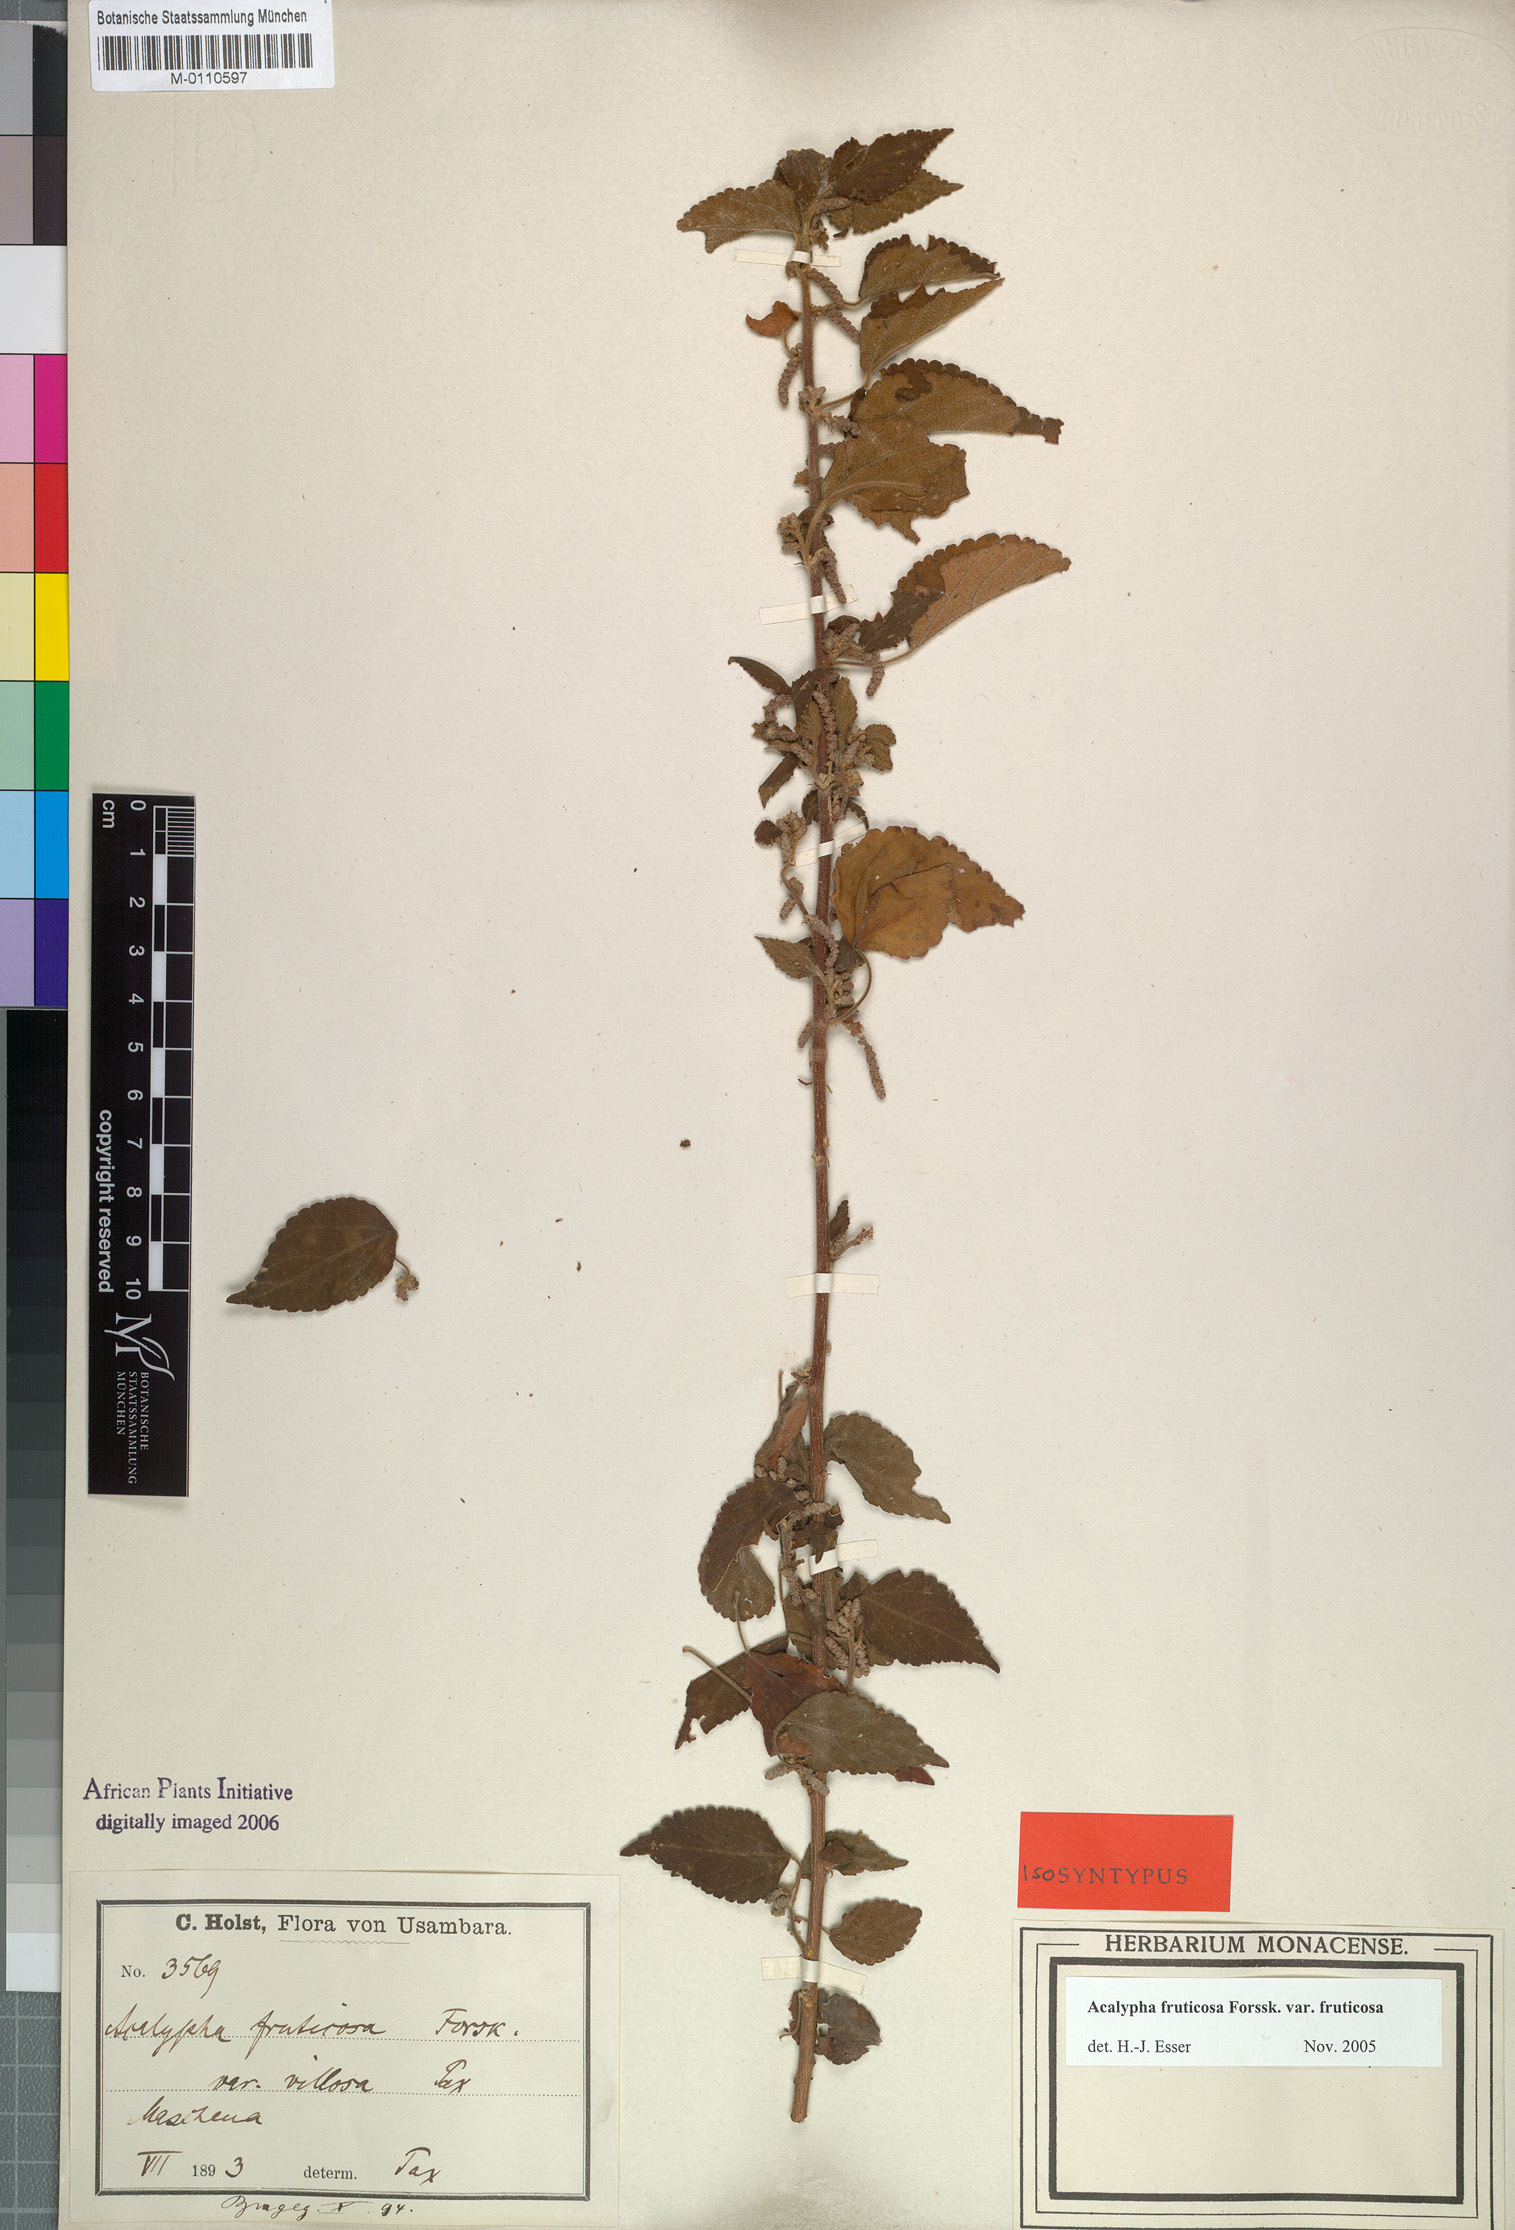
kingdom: Plantae
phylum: Tracheophyta
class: Magnoliopsida
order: Malpighiales
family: Euphorbiaceae
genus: Acalypha
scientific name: Acalypha fruticosa
